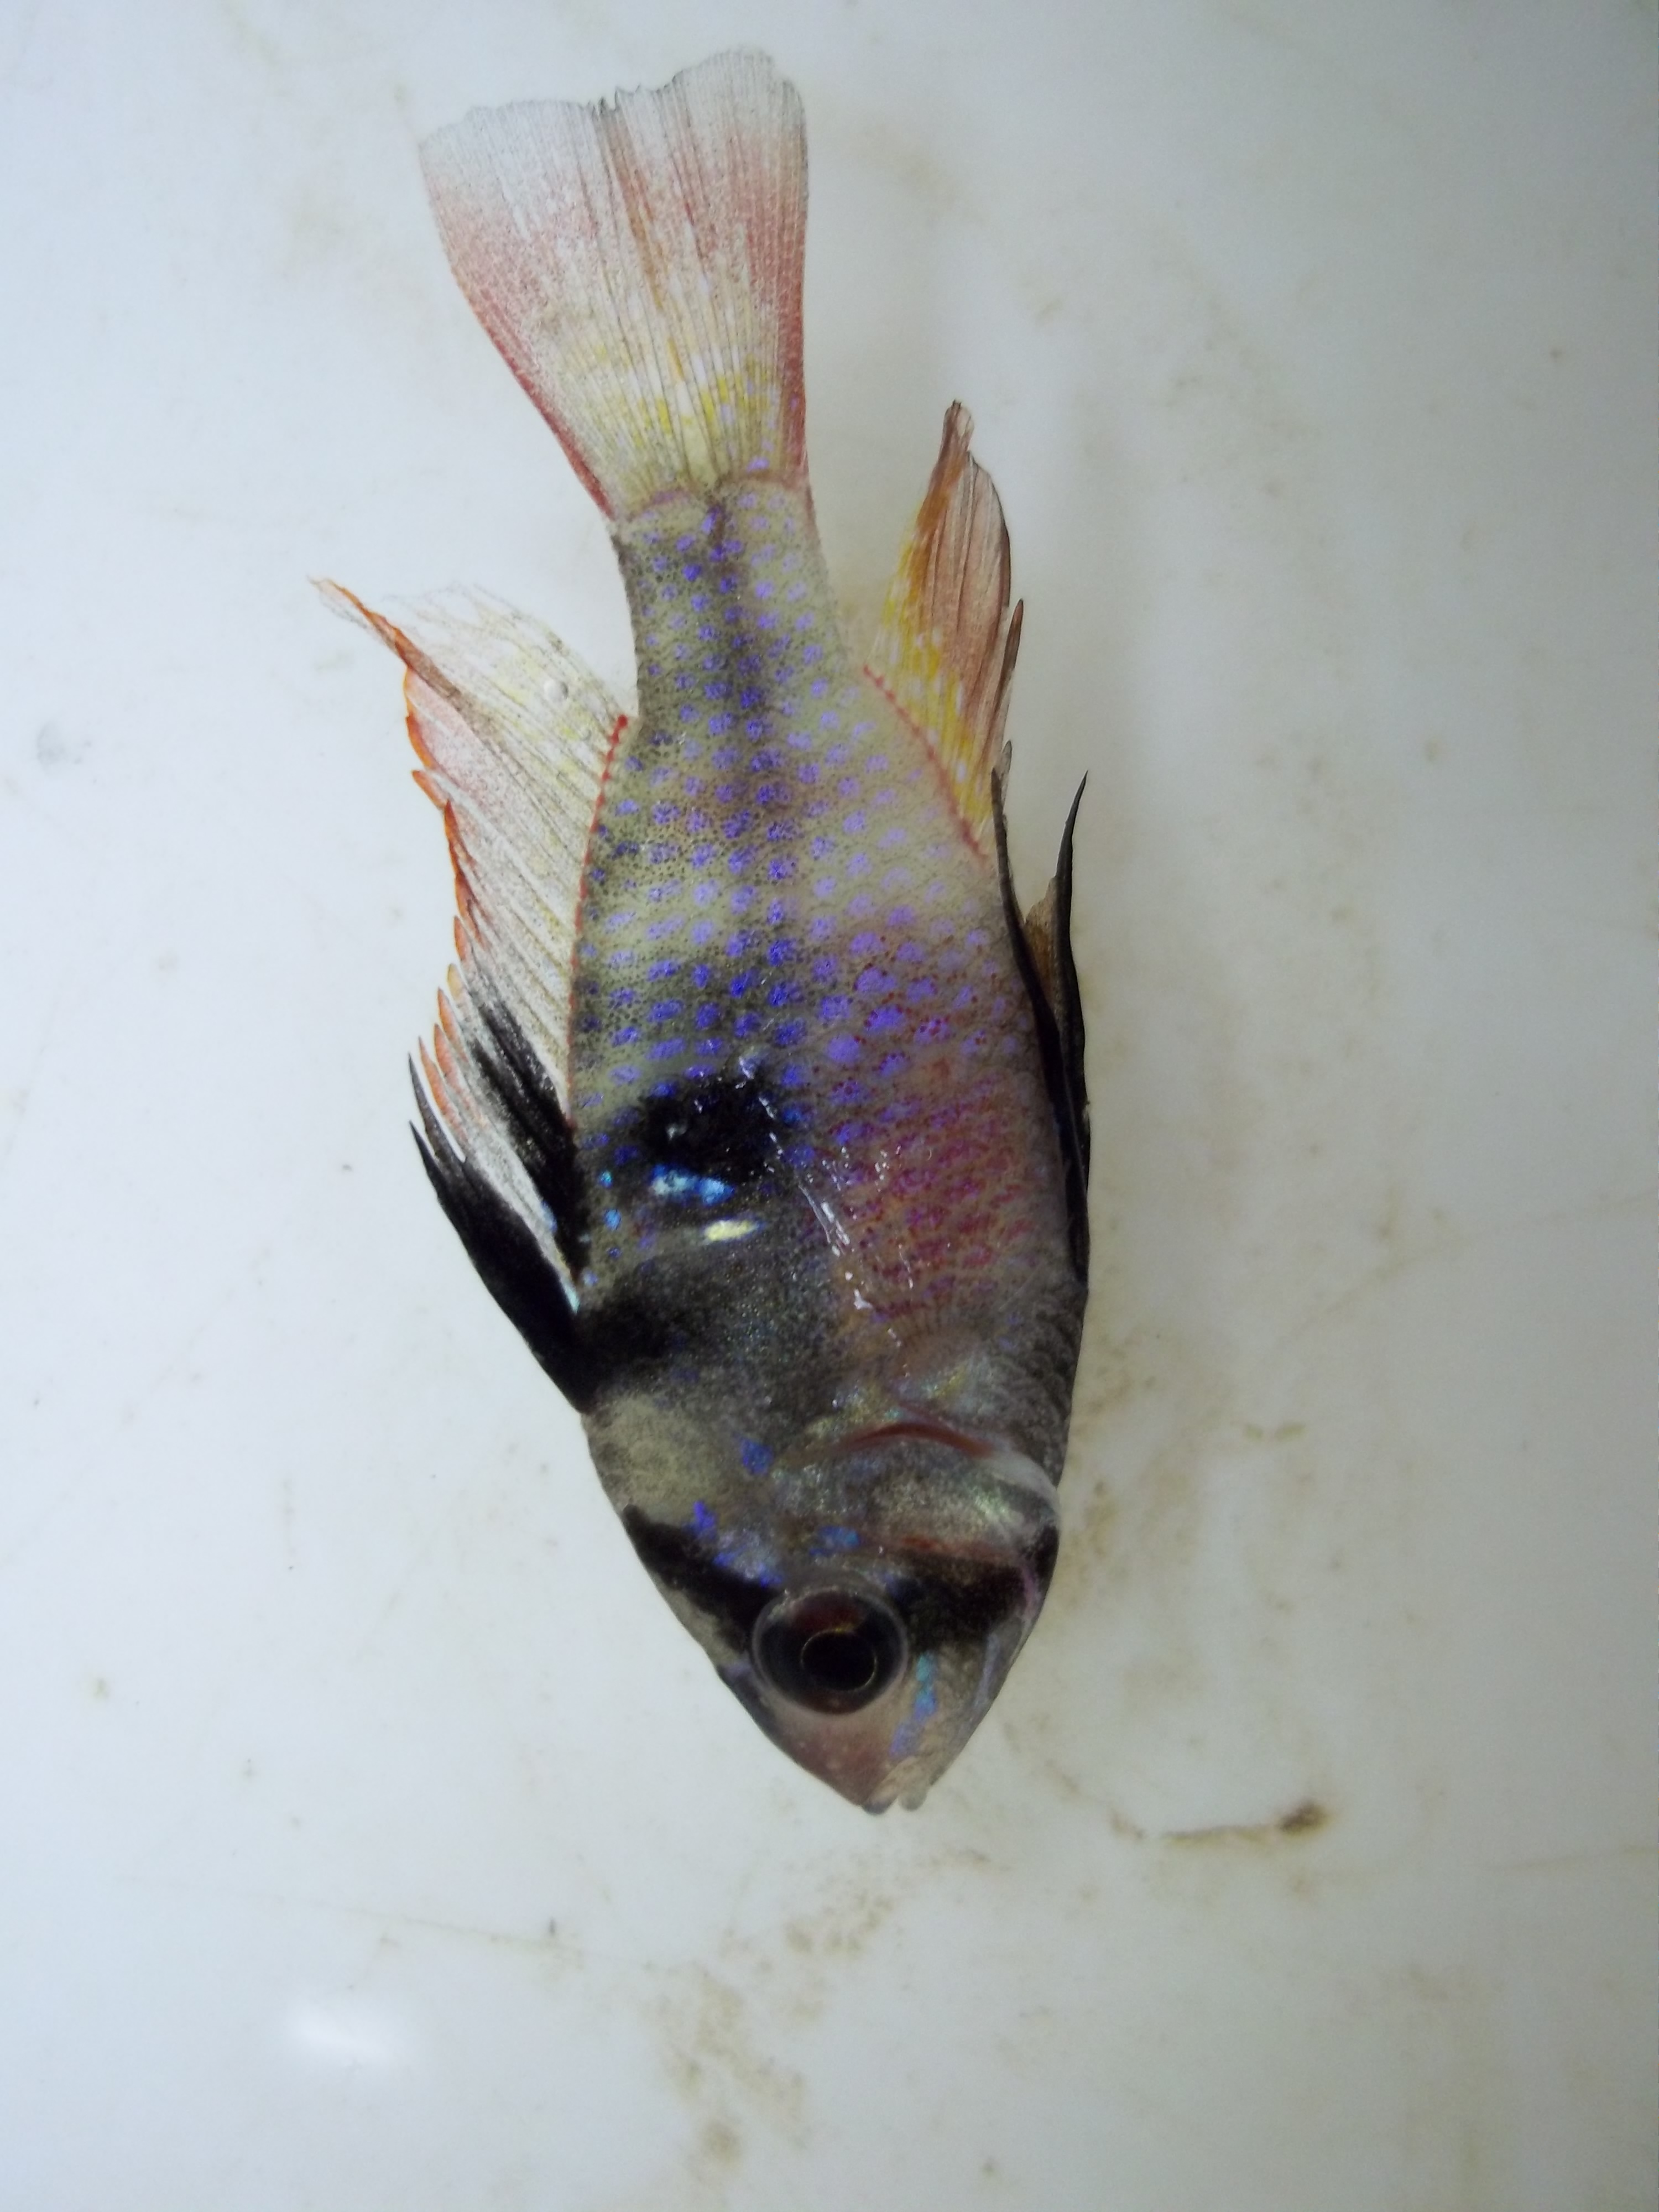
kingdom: Animalia
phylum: Chordata
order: Perciformes
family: Cichlidae
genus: Mikrogeophagus
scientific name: Mikrogeophagus ramirezi
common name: Ram cichlid
